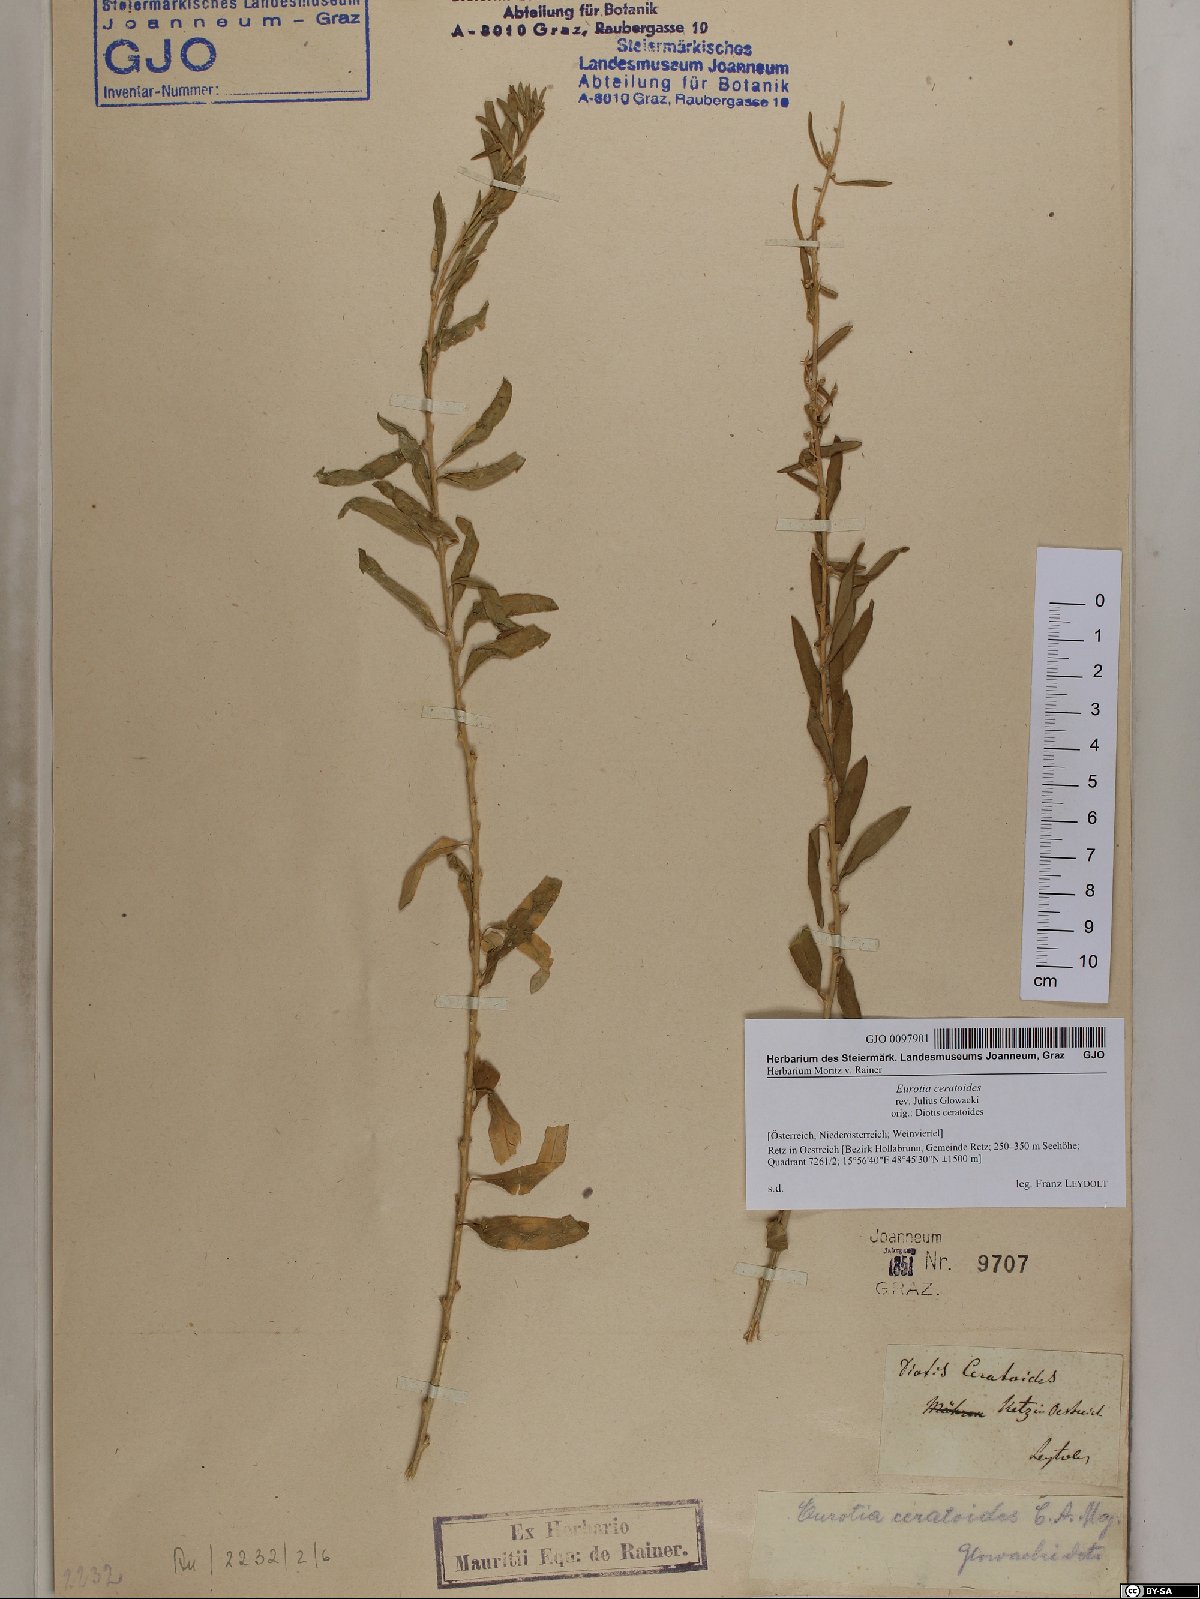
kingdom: Plantae
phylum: Tracheophyta
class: Magnoliopsida
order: Caryophyllales
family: Amaranthaceae
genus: Krascheninnikovia
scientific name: Krascheninnikovia ceratoides
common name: Pamirian winterfat
